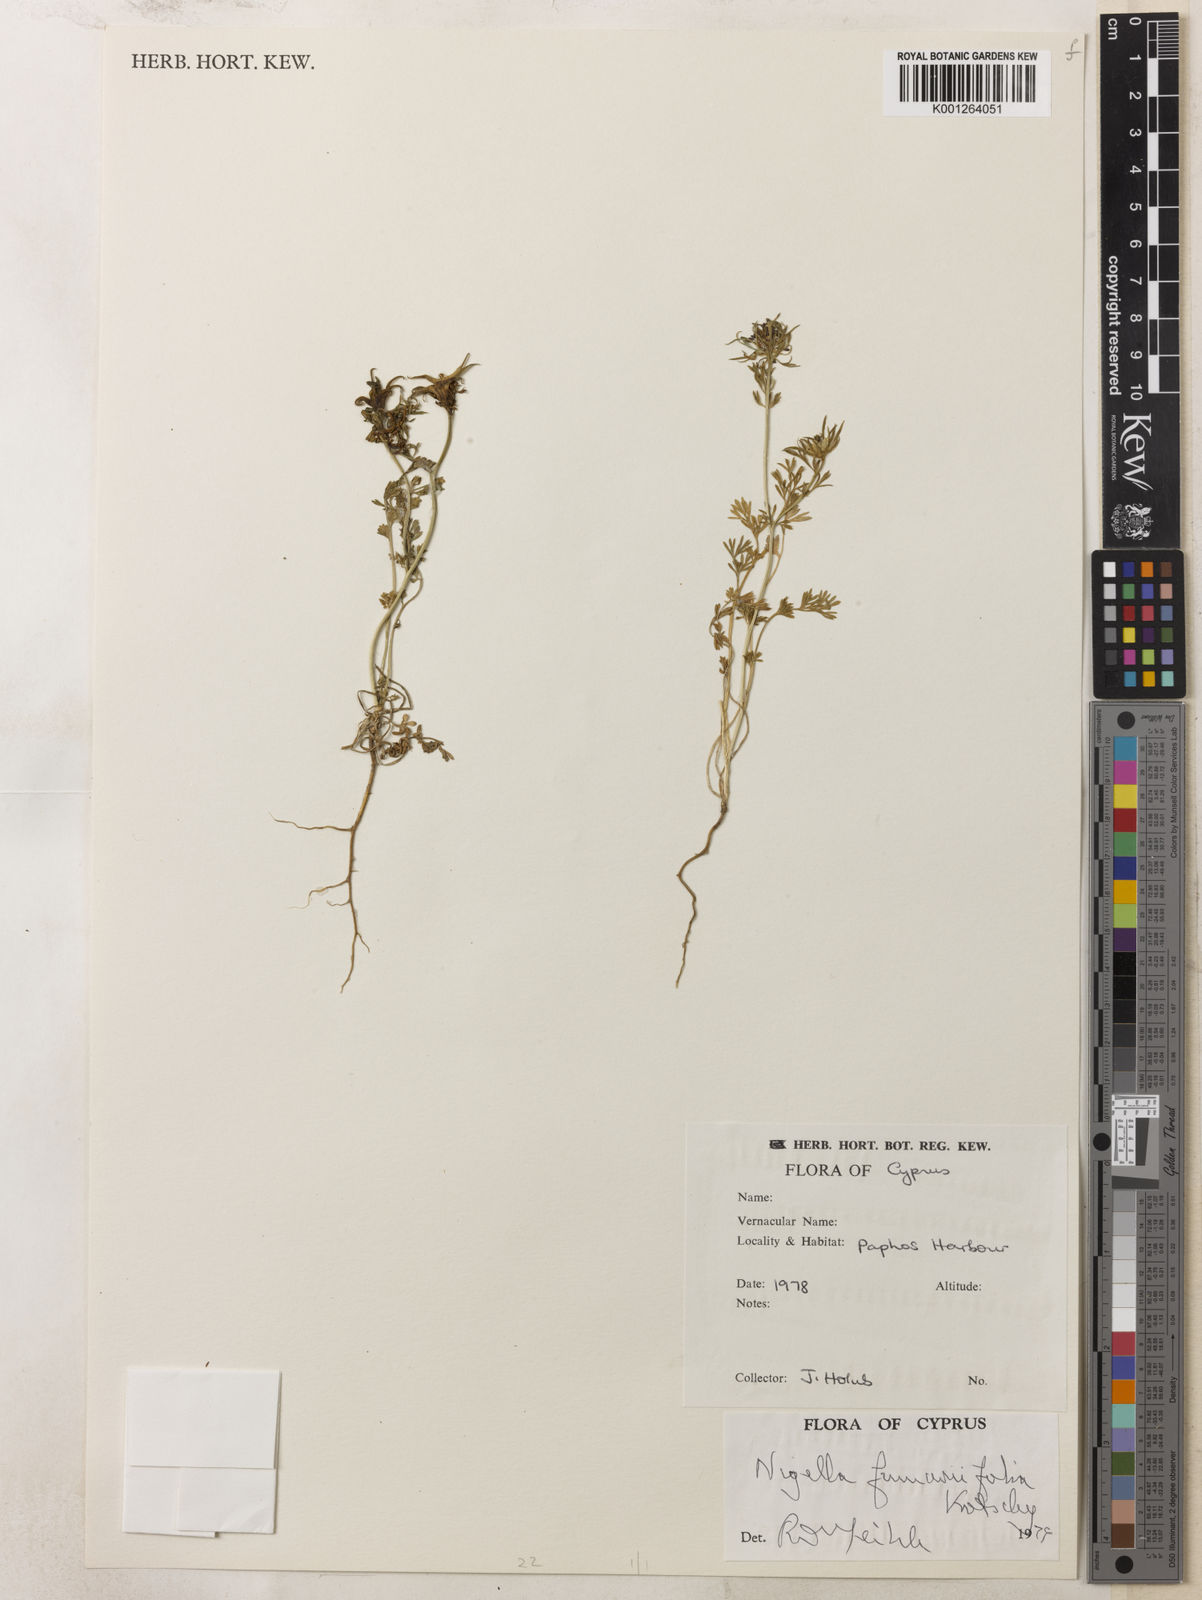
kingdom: Plantae
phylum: Tracheophyta
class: Magnoliopsida
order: Ranunculales
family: Ranunculaceae
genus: Nigella
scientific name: Nigella
